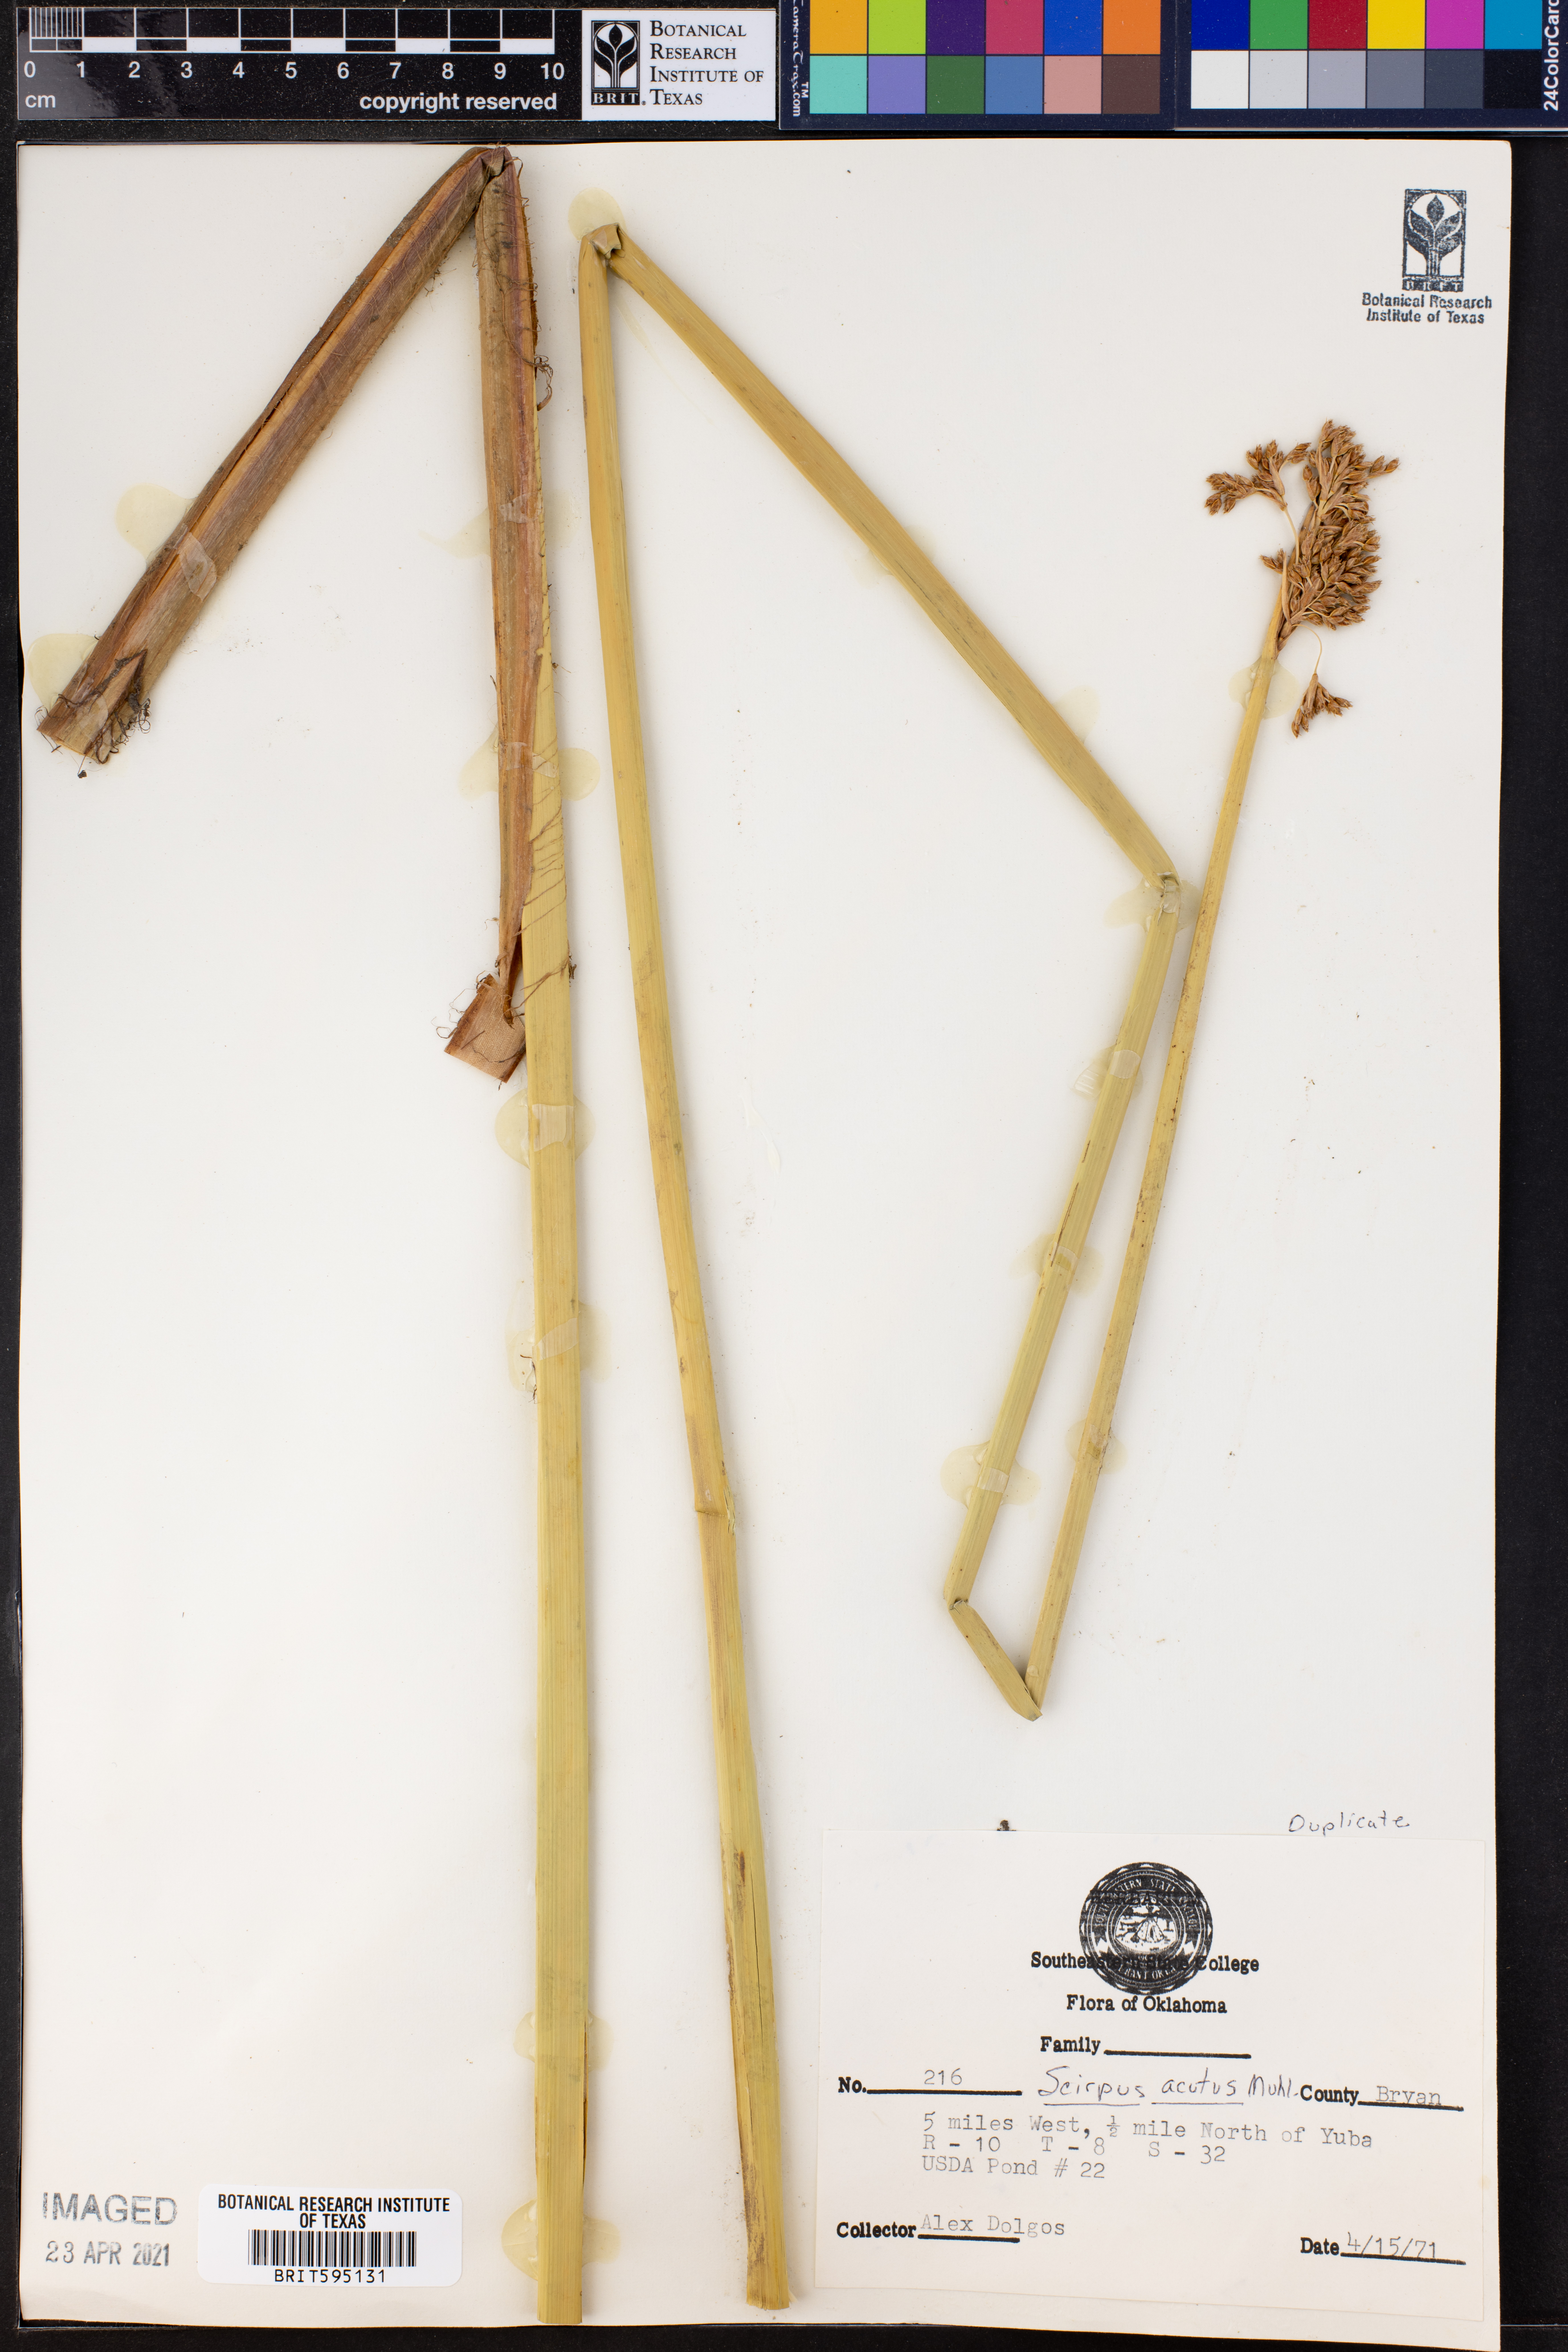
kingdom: Plantae
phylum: Tracheophyta
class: Liliopsida
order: Poales
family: Cyperaceae
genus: Scirpus
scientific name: Scirpus acutus
